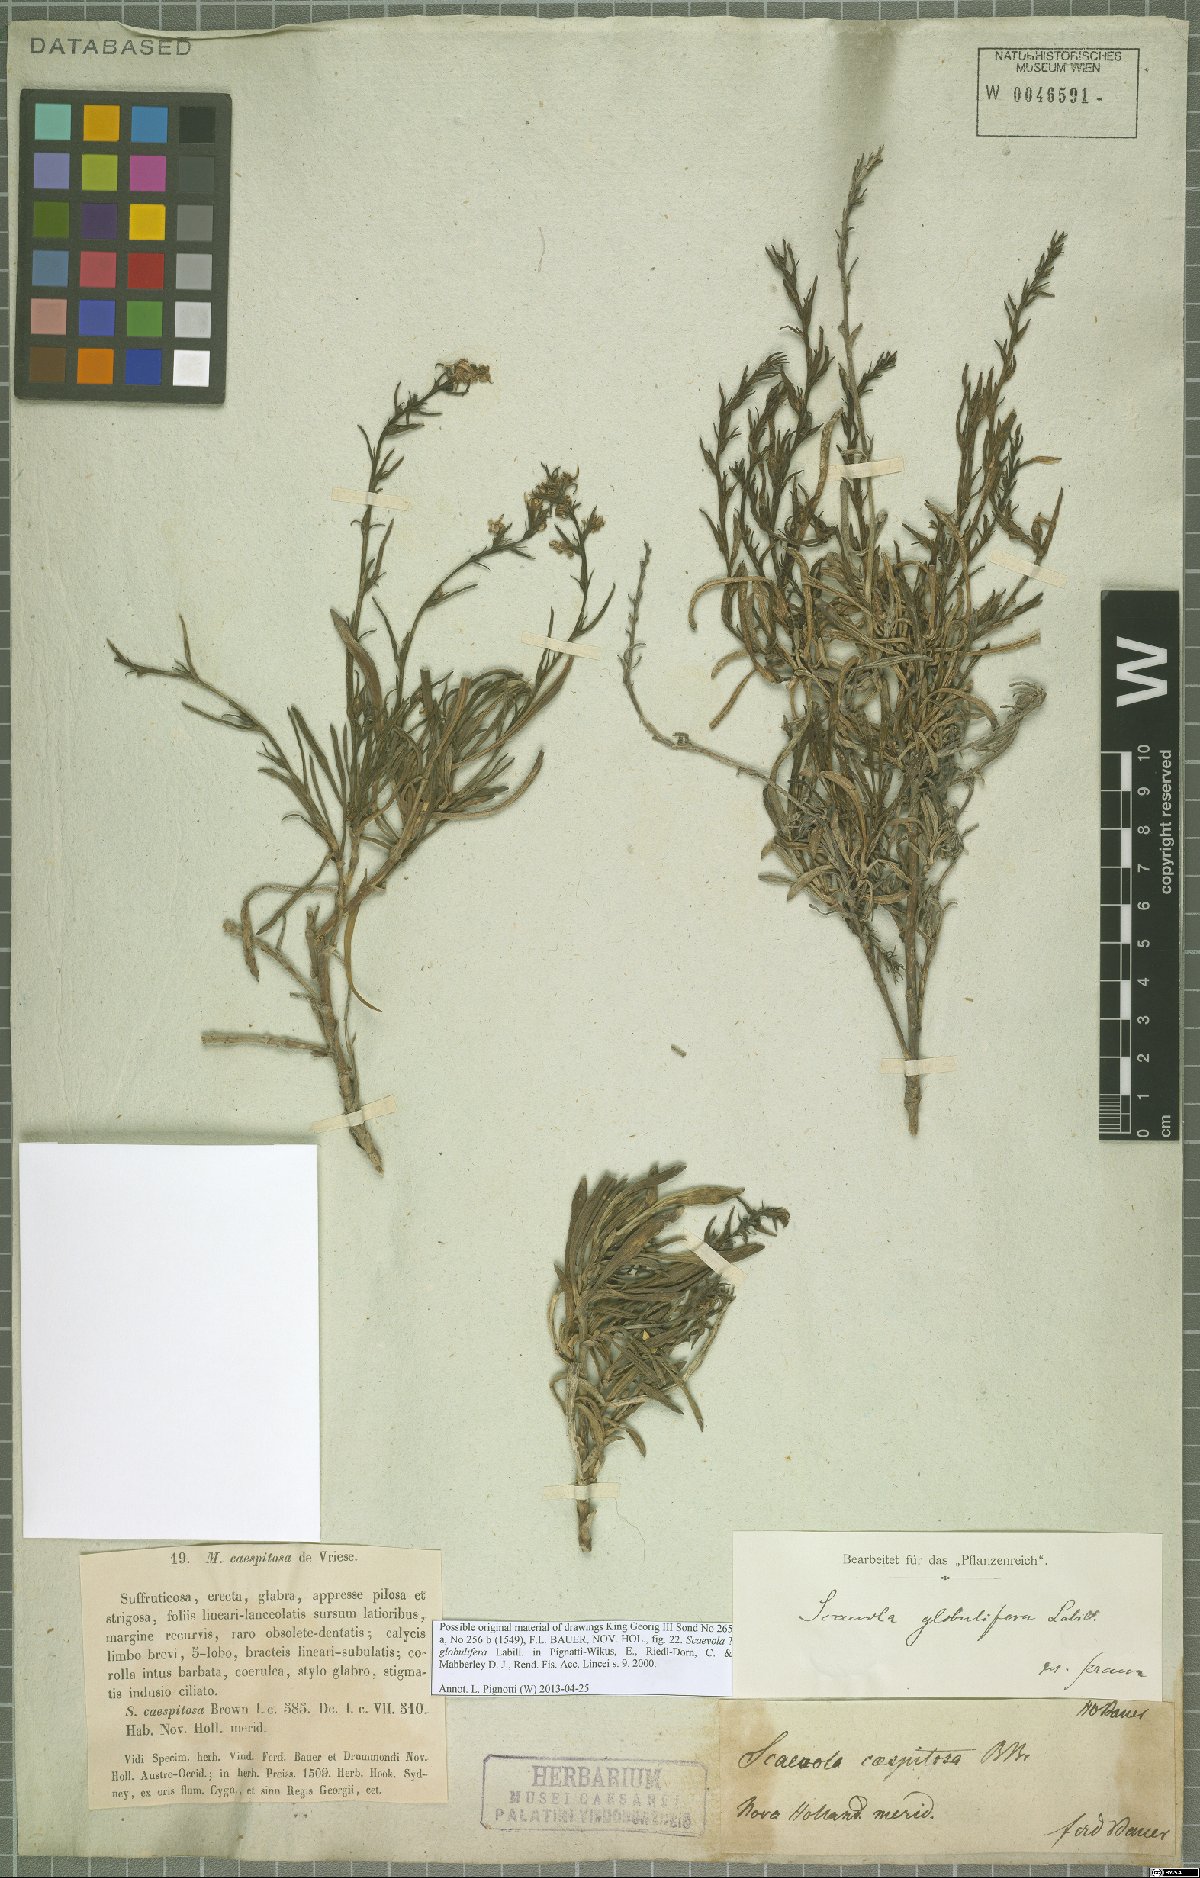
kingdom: Plantae
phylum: Tracheophyta
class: Magnoliopsida
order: Asterales
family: Goodeniaceae
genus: Scaevola
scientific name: Scaevola globulifera
